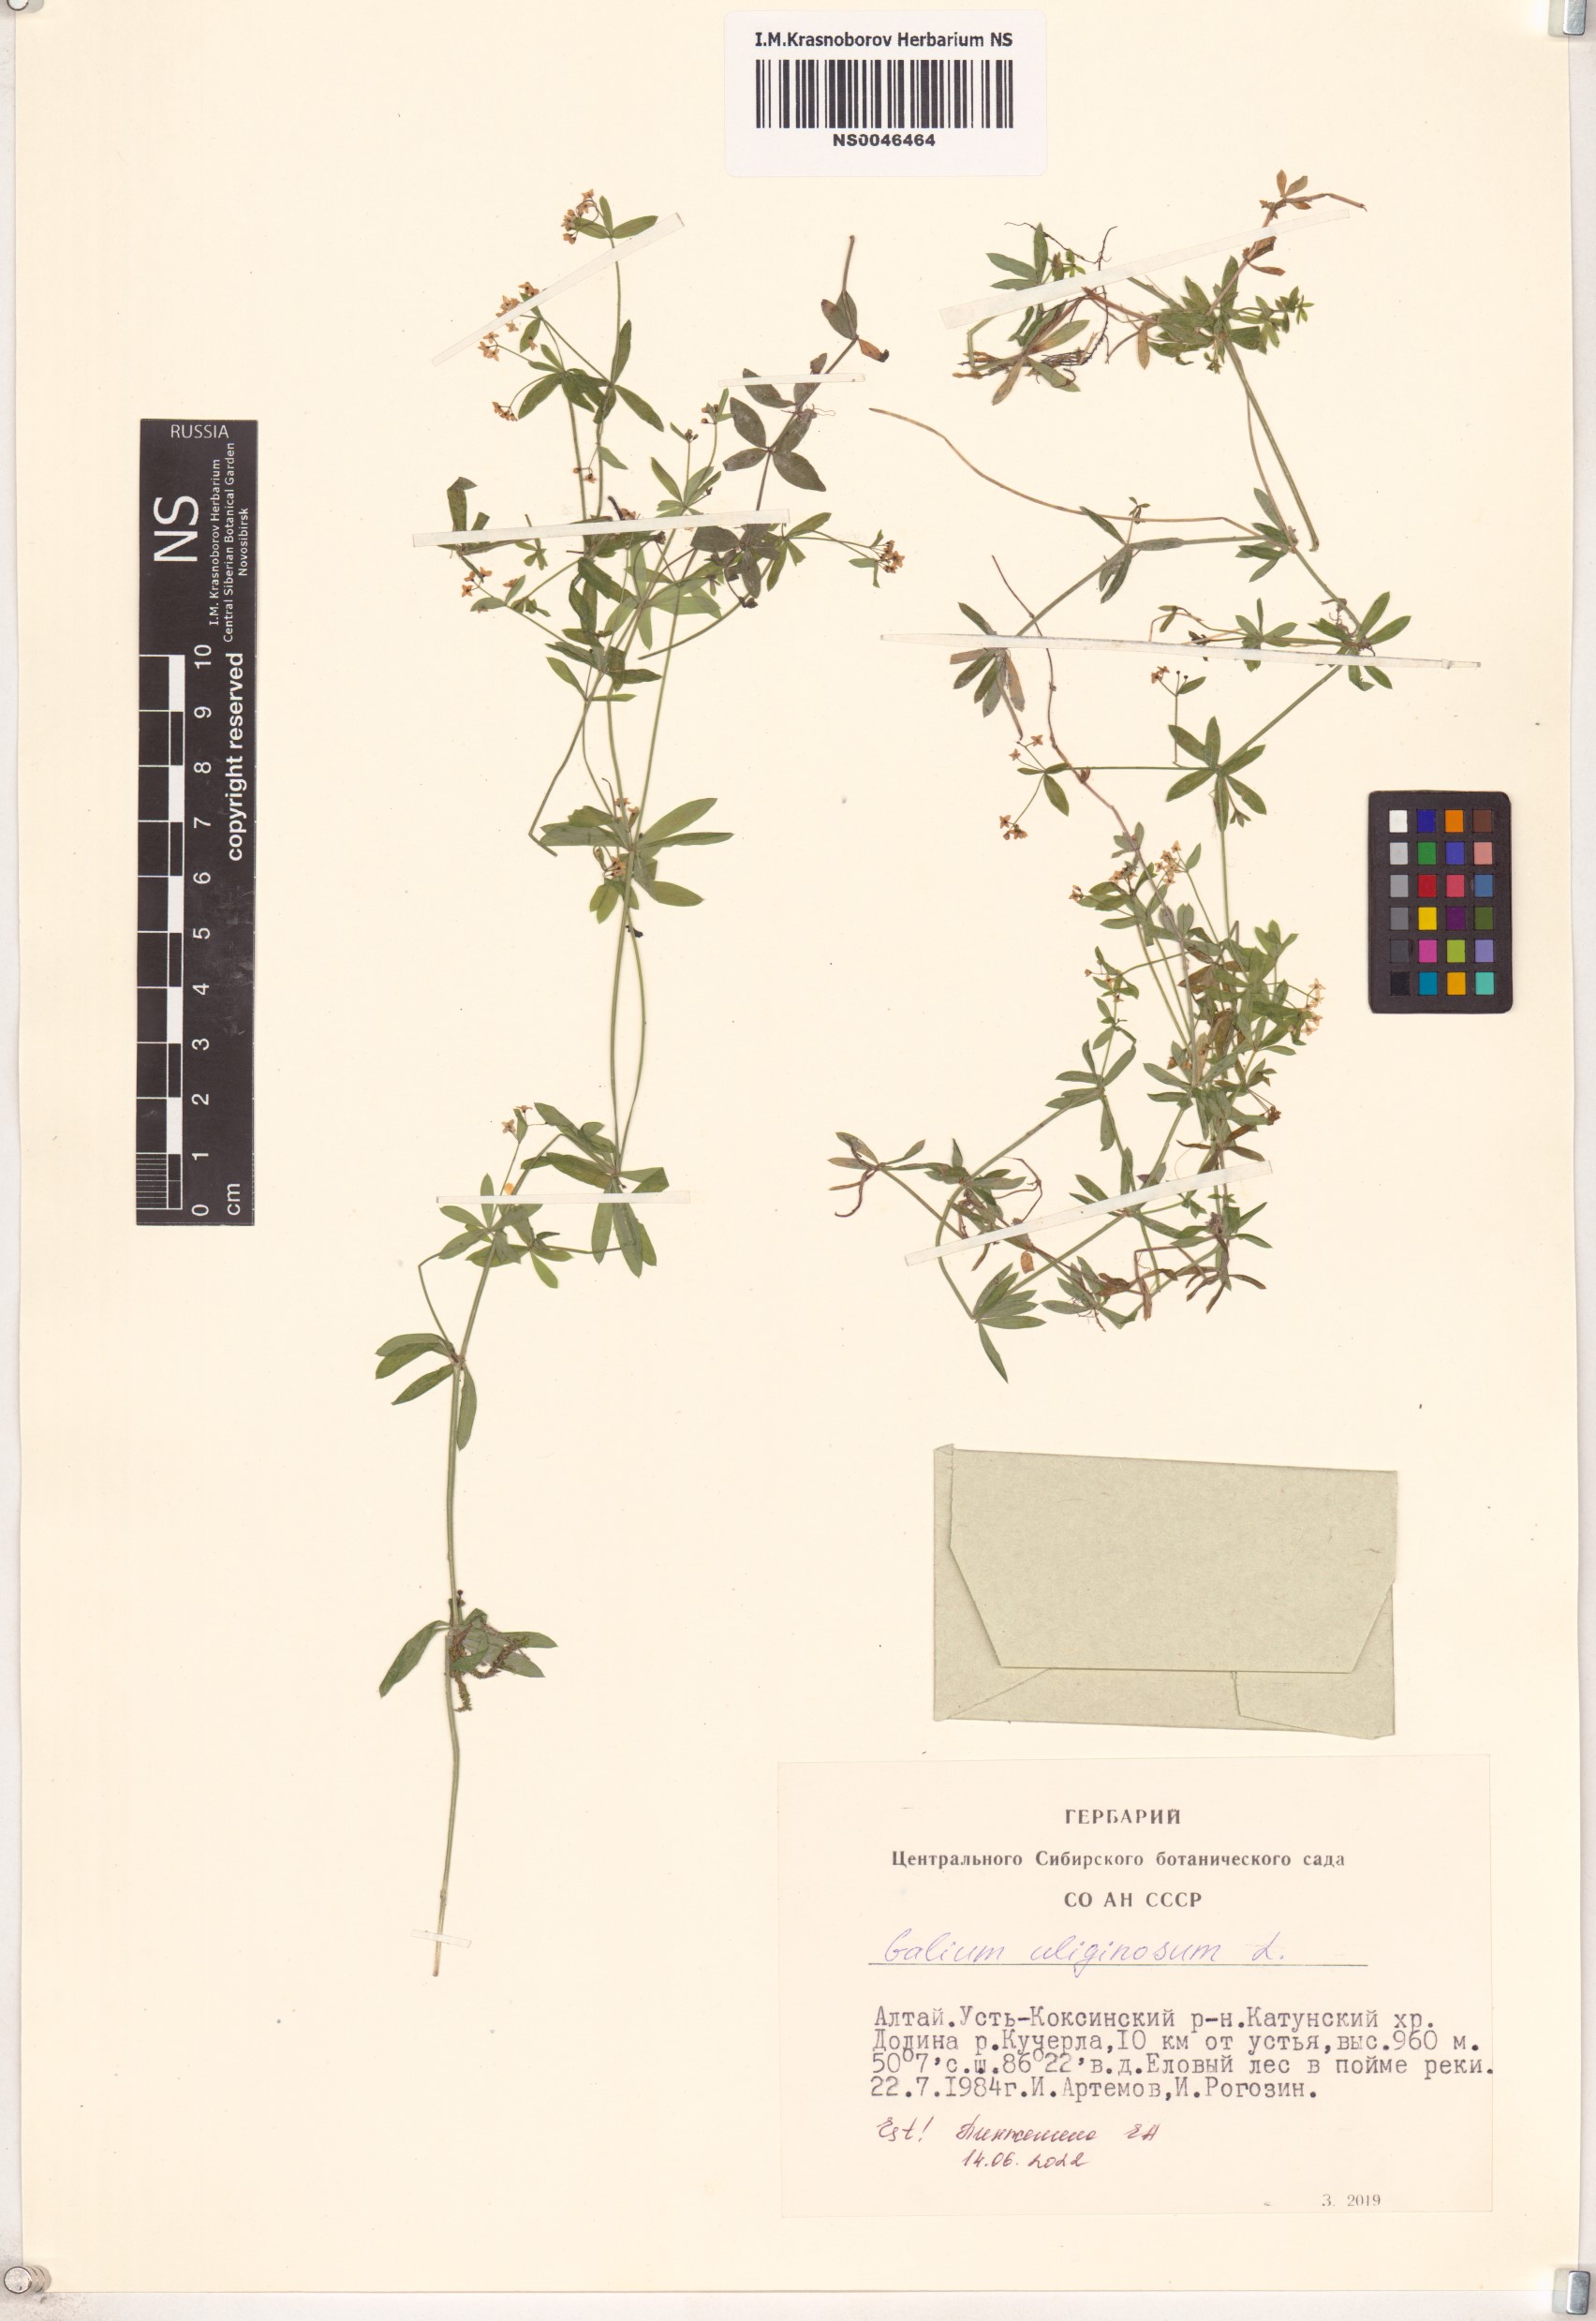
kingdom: Plantae
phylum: Tracheophyta
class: Magnoliopsida
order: Gentianales
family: Rubiaceae
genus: Galium
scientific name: Galium uliginosum
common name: Fen bedstraw
